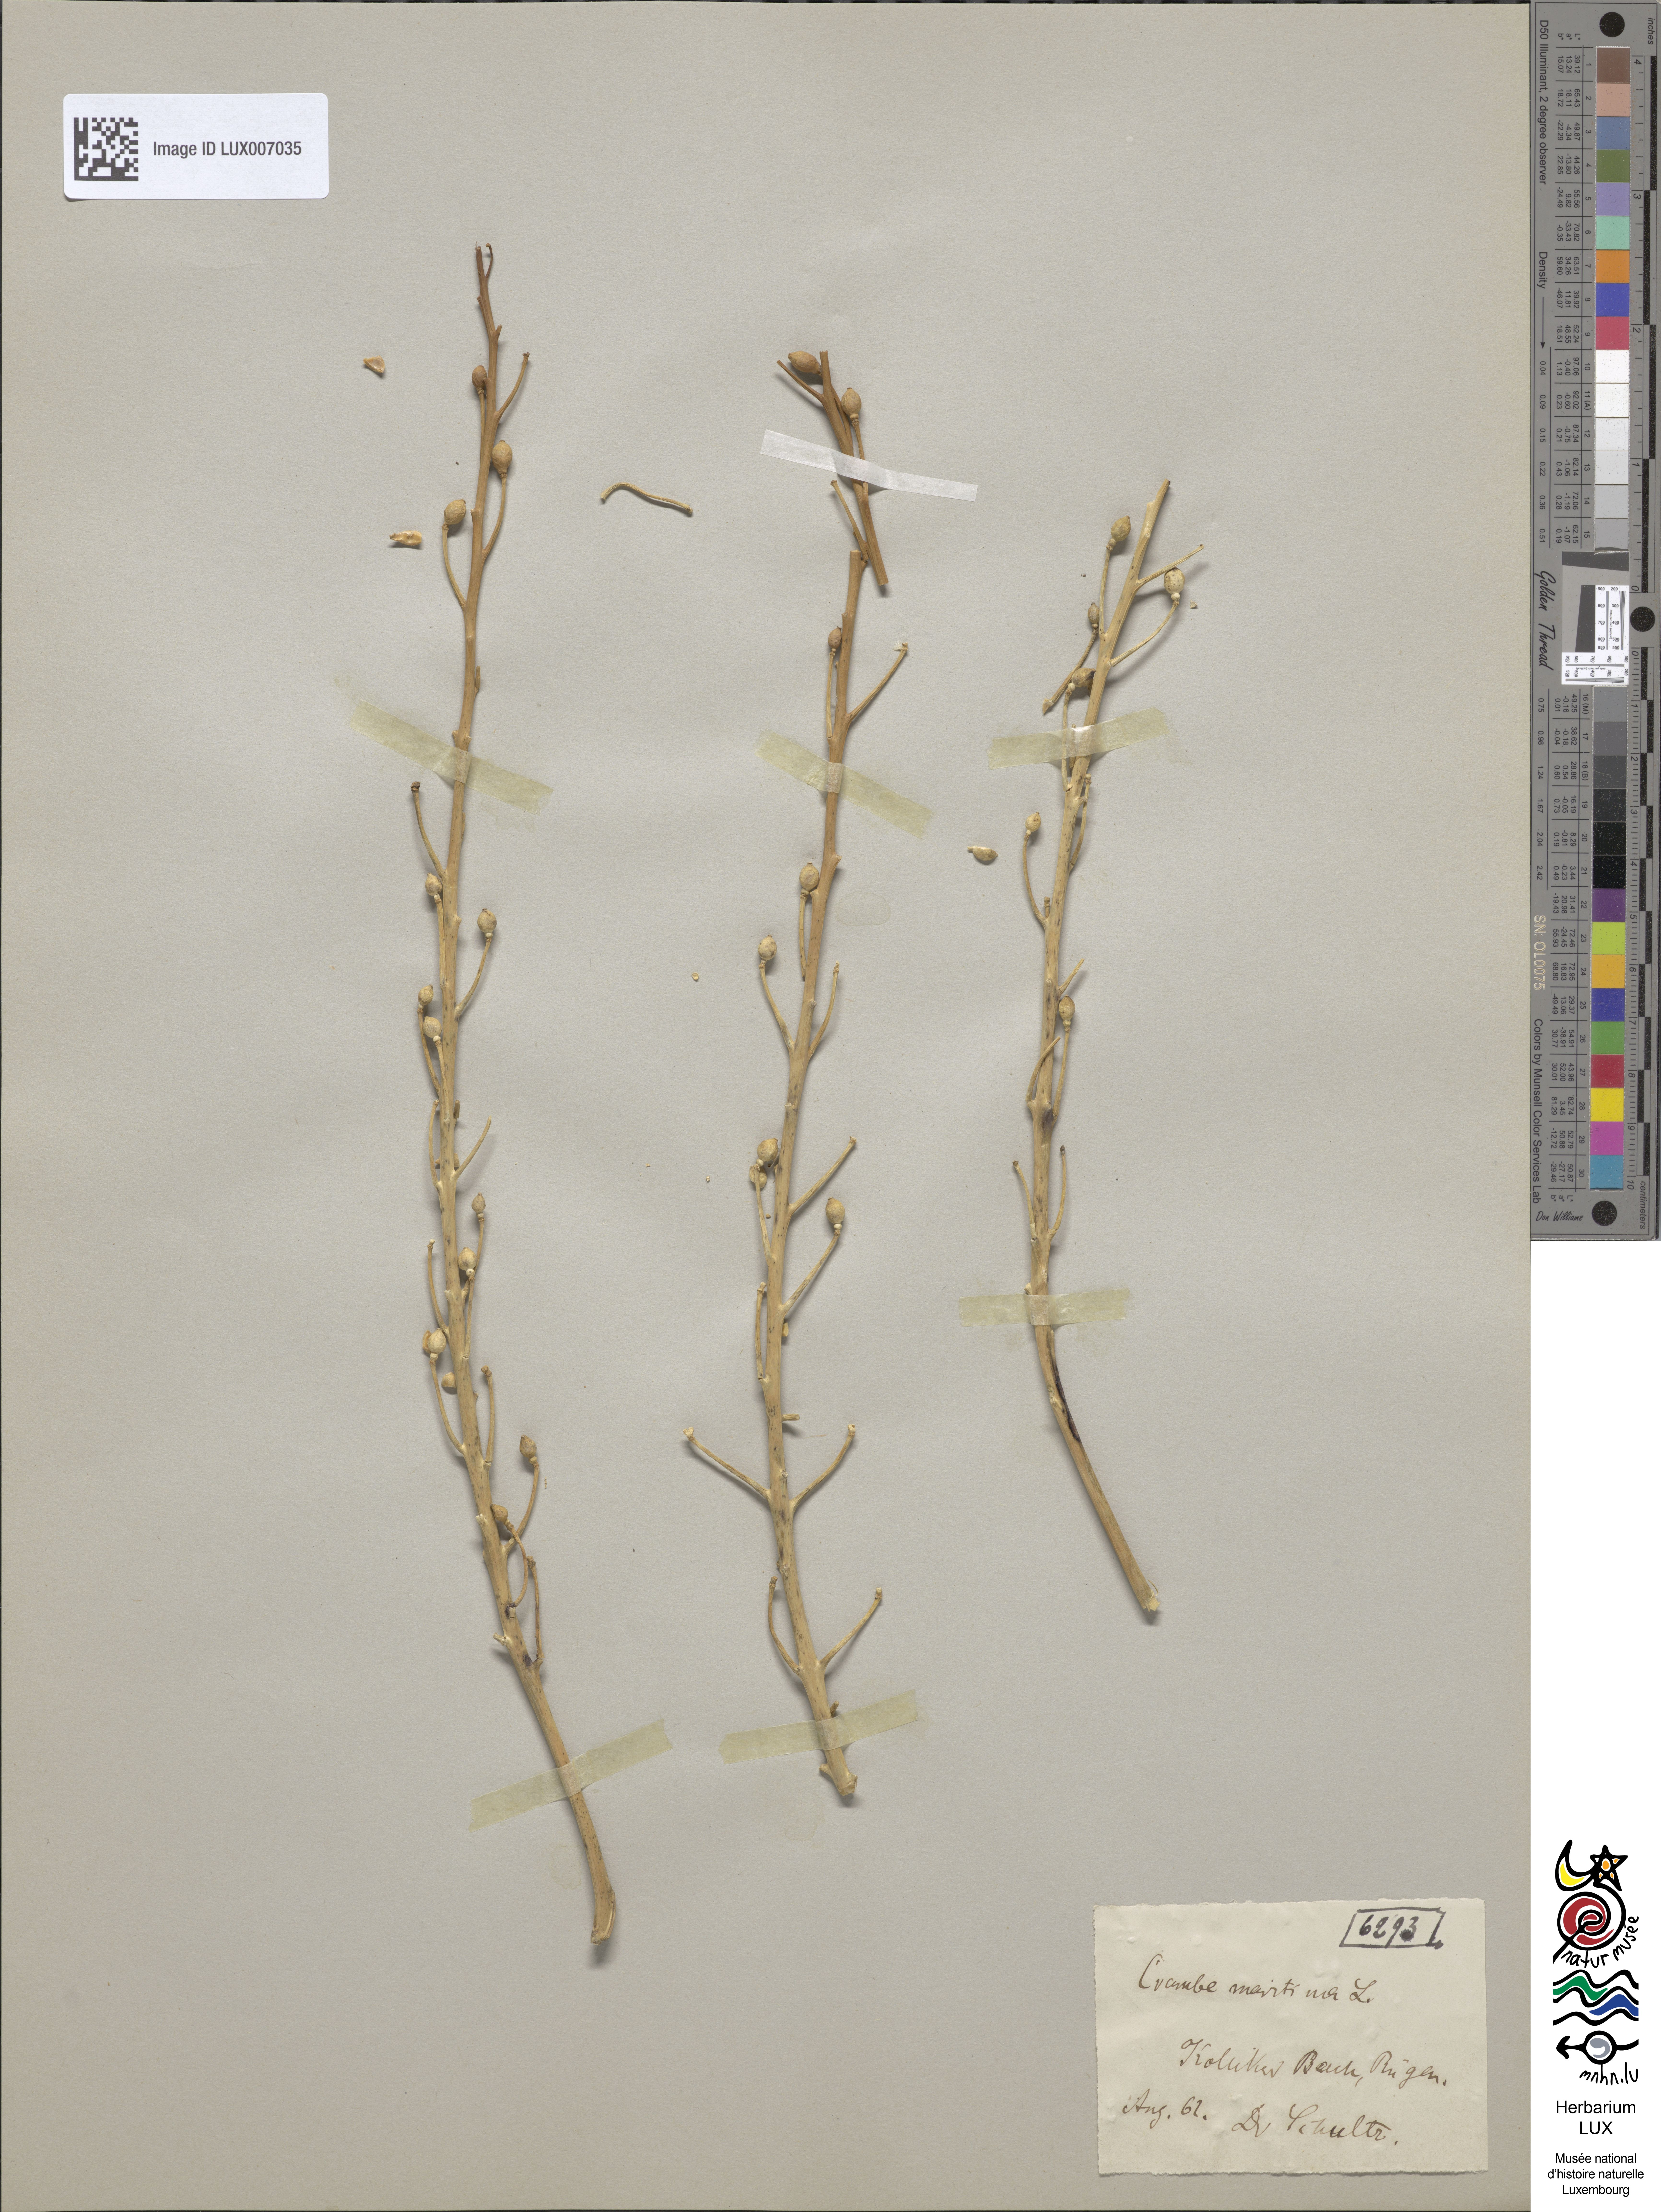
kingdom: Plantae
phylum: Tracheophyta
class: Magnoliopsida
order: Brassicales
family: Brassicaceae
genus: Crambe
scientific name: Crambe maritima
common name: Sea-kale
